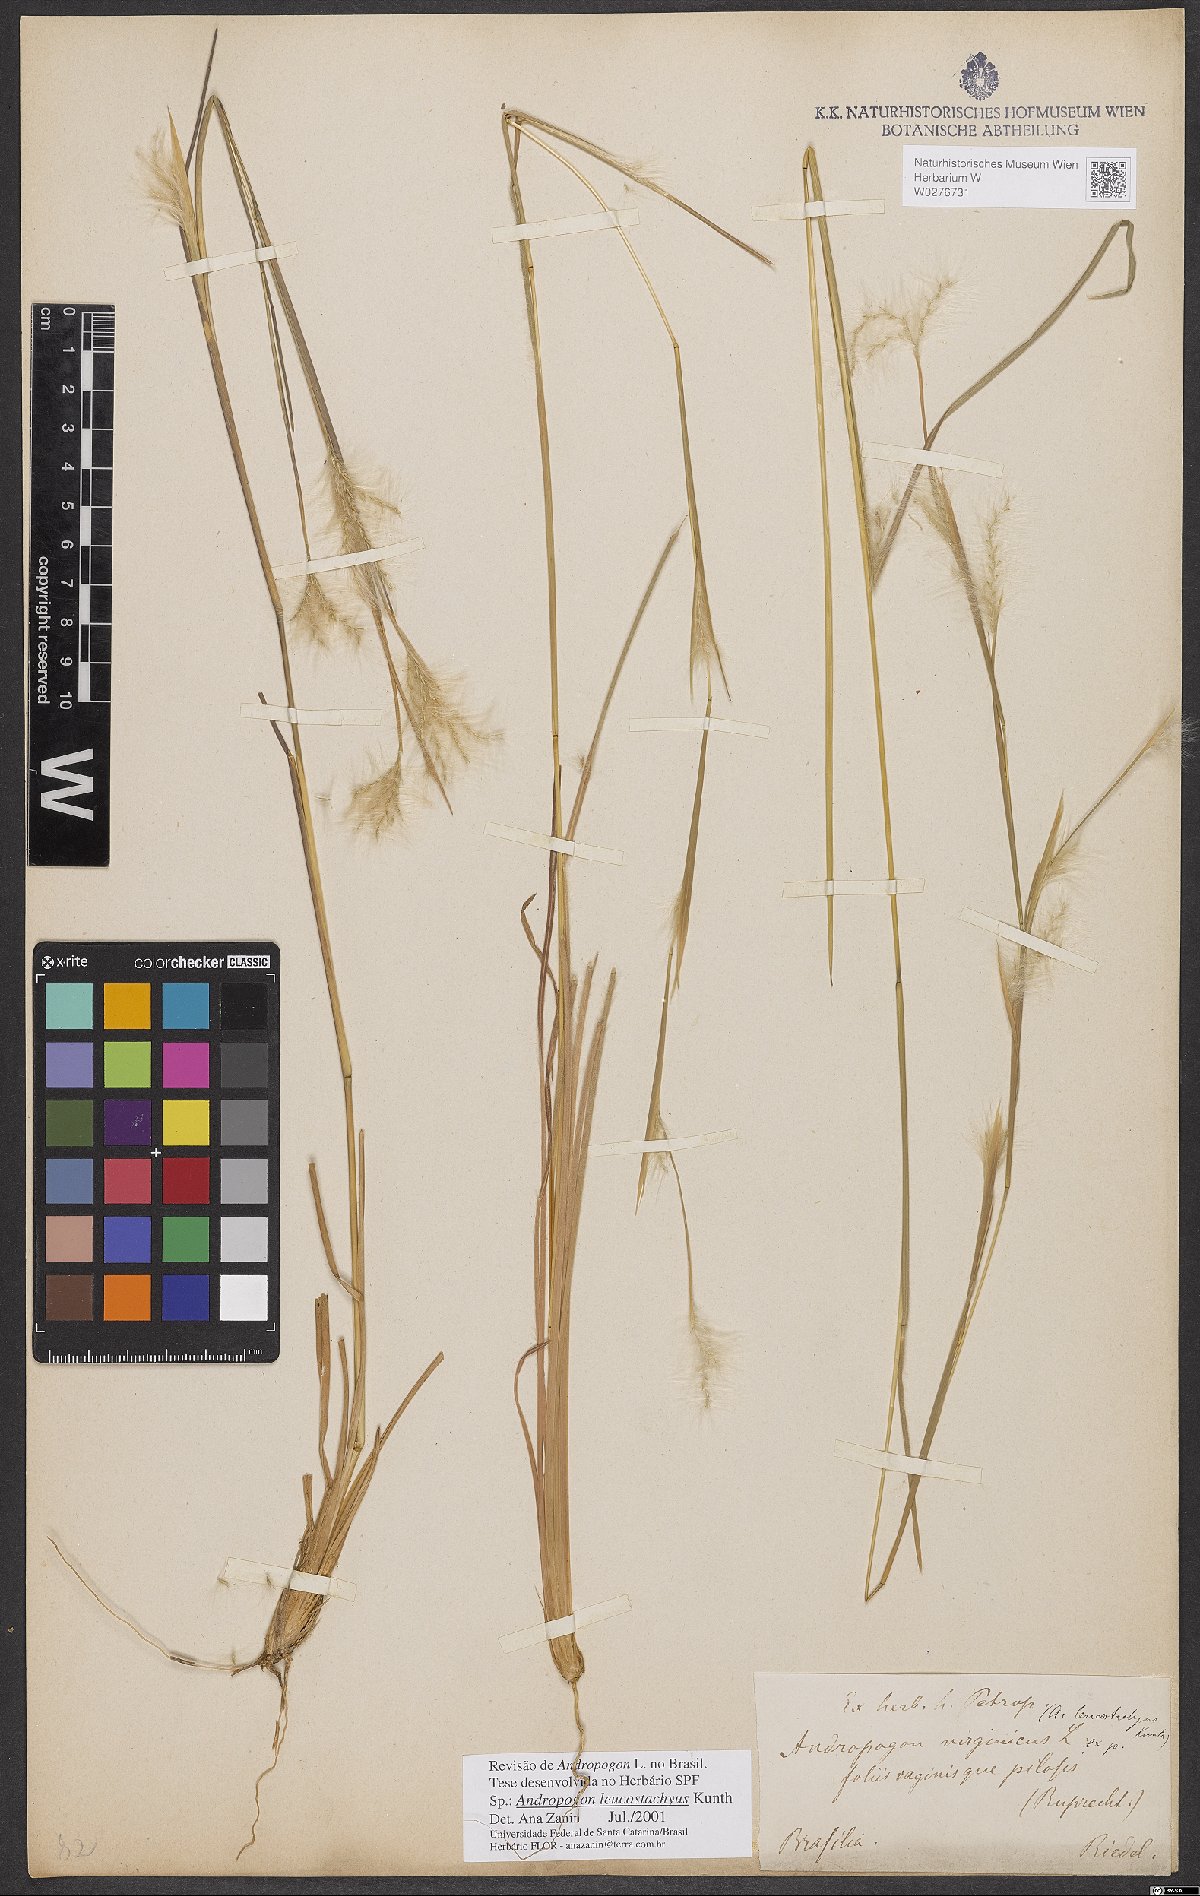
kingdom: Plantae
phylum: Tracheophyta
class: Liliopsida
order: Poales
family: Poaceae
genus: Andropogon
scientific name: Andropogon leucostachyus
